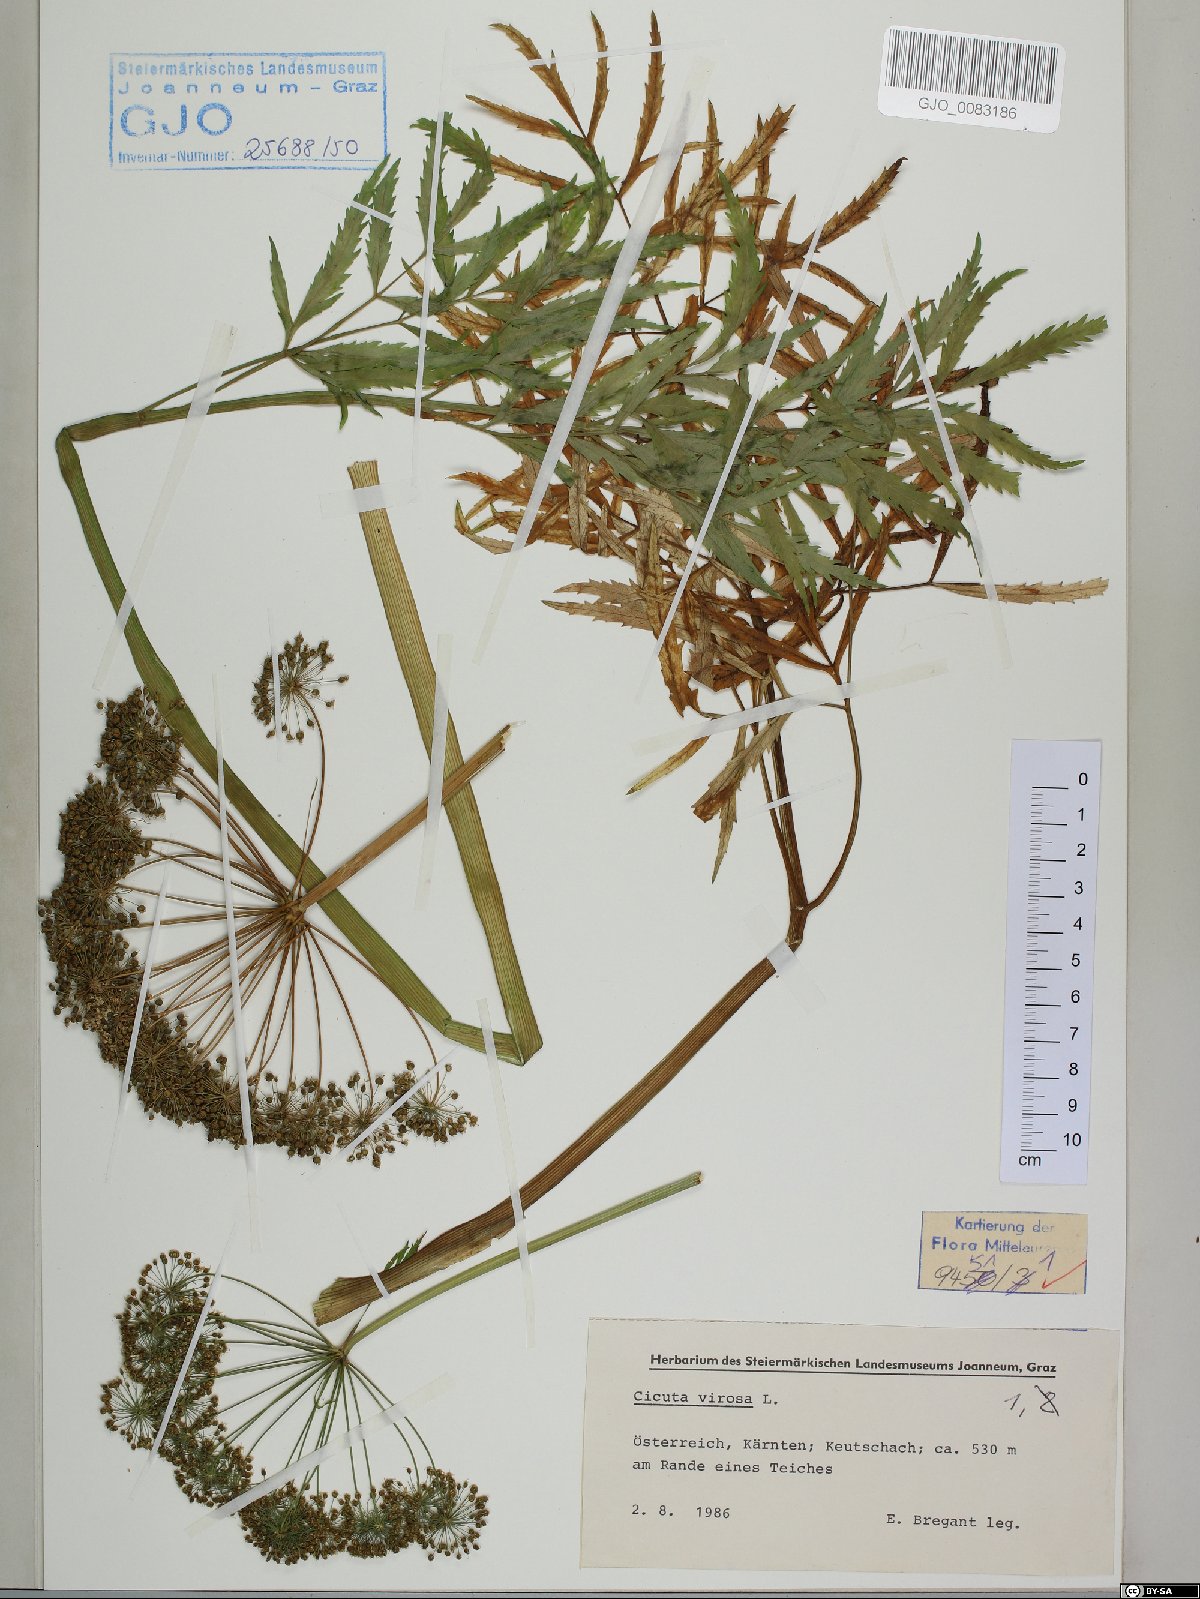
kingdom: Plantae
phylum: Tracheophyta
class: Magnoliopsida
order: Apiales
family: Apiaceae
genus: Cicuta
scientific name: Cicuta virosa
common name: Cowbane
